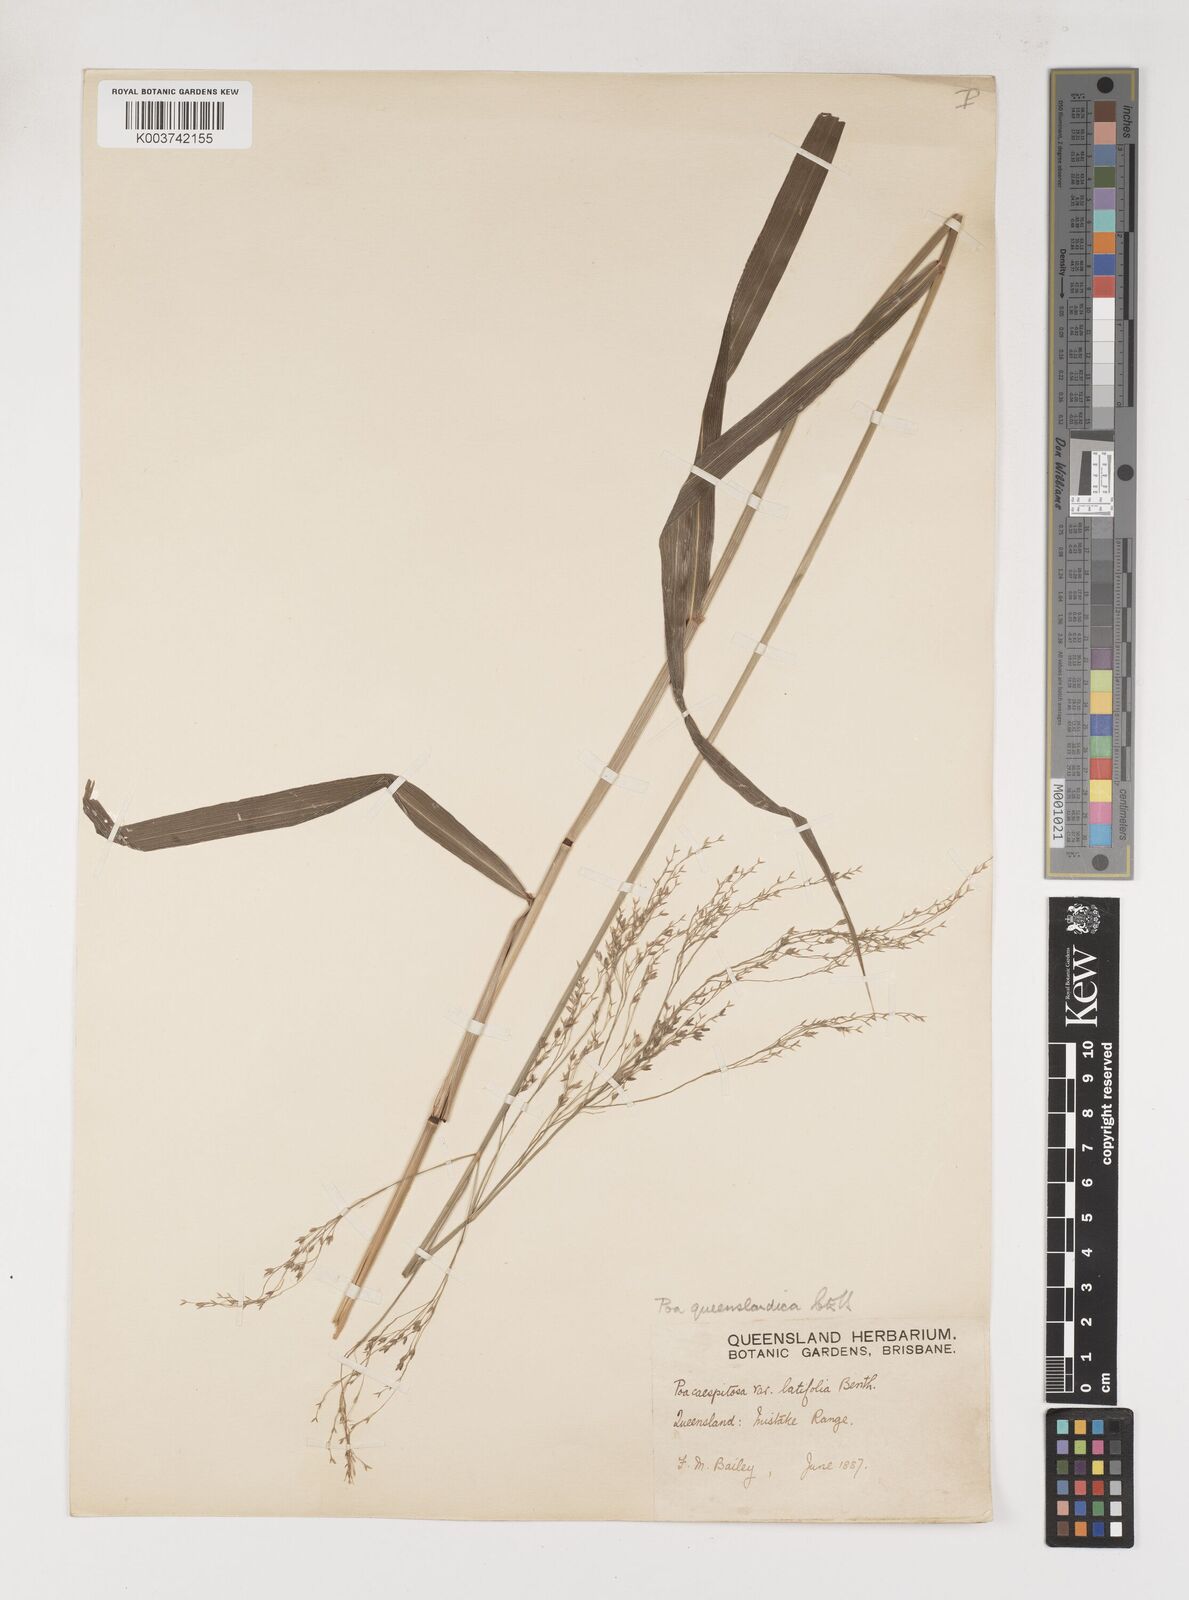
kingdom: Plantae
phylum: Tracheophyta
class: Liliopsida
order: Poales
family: Poaceae
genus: Sylvipoa
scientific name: Sylvipoa queenslandica
